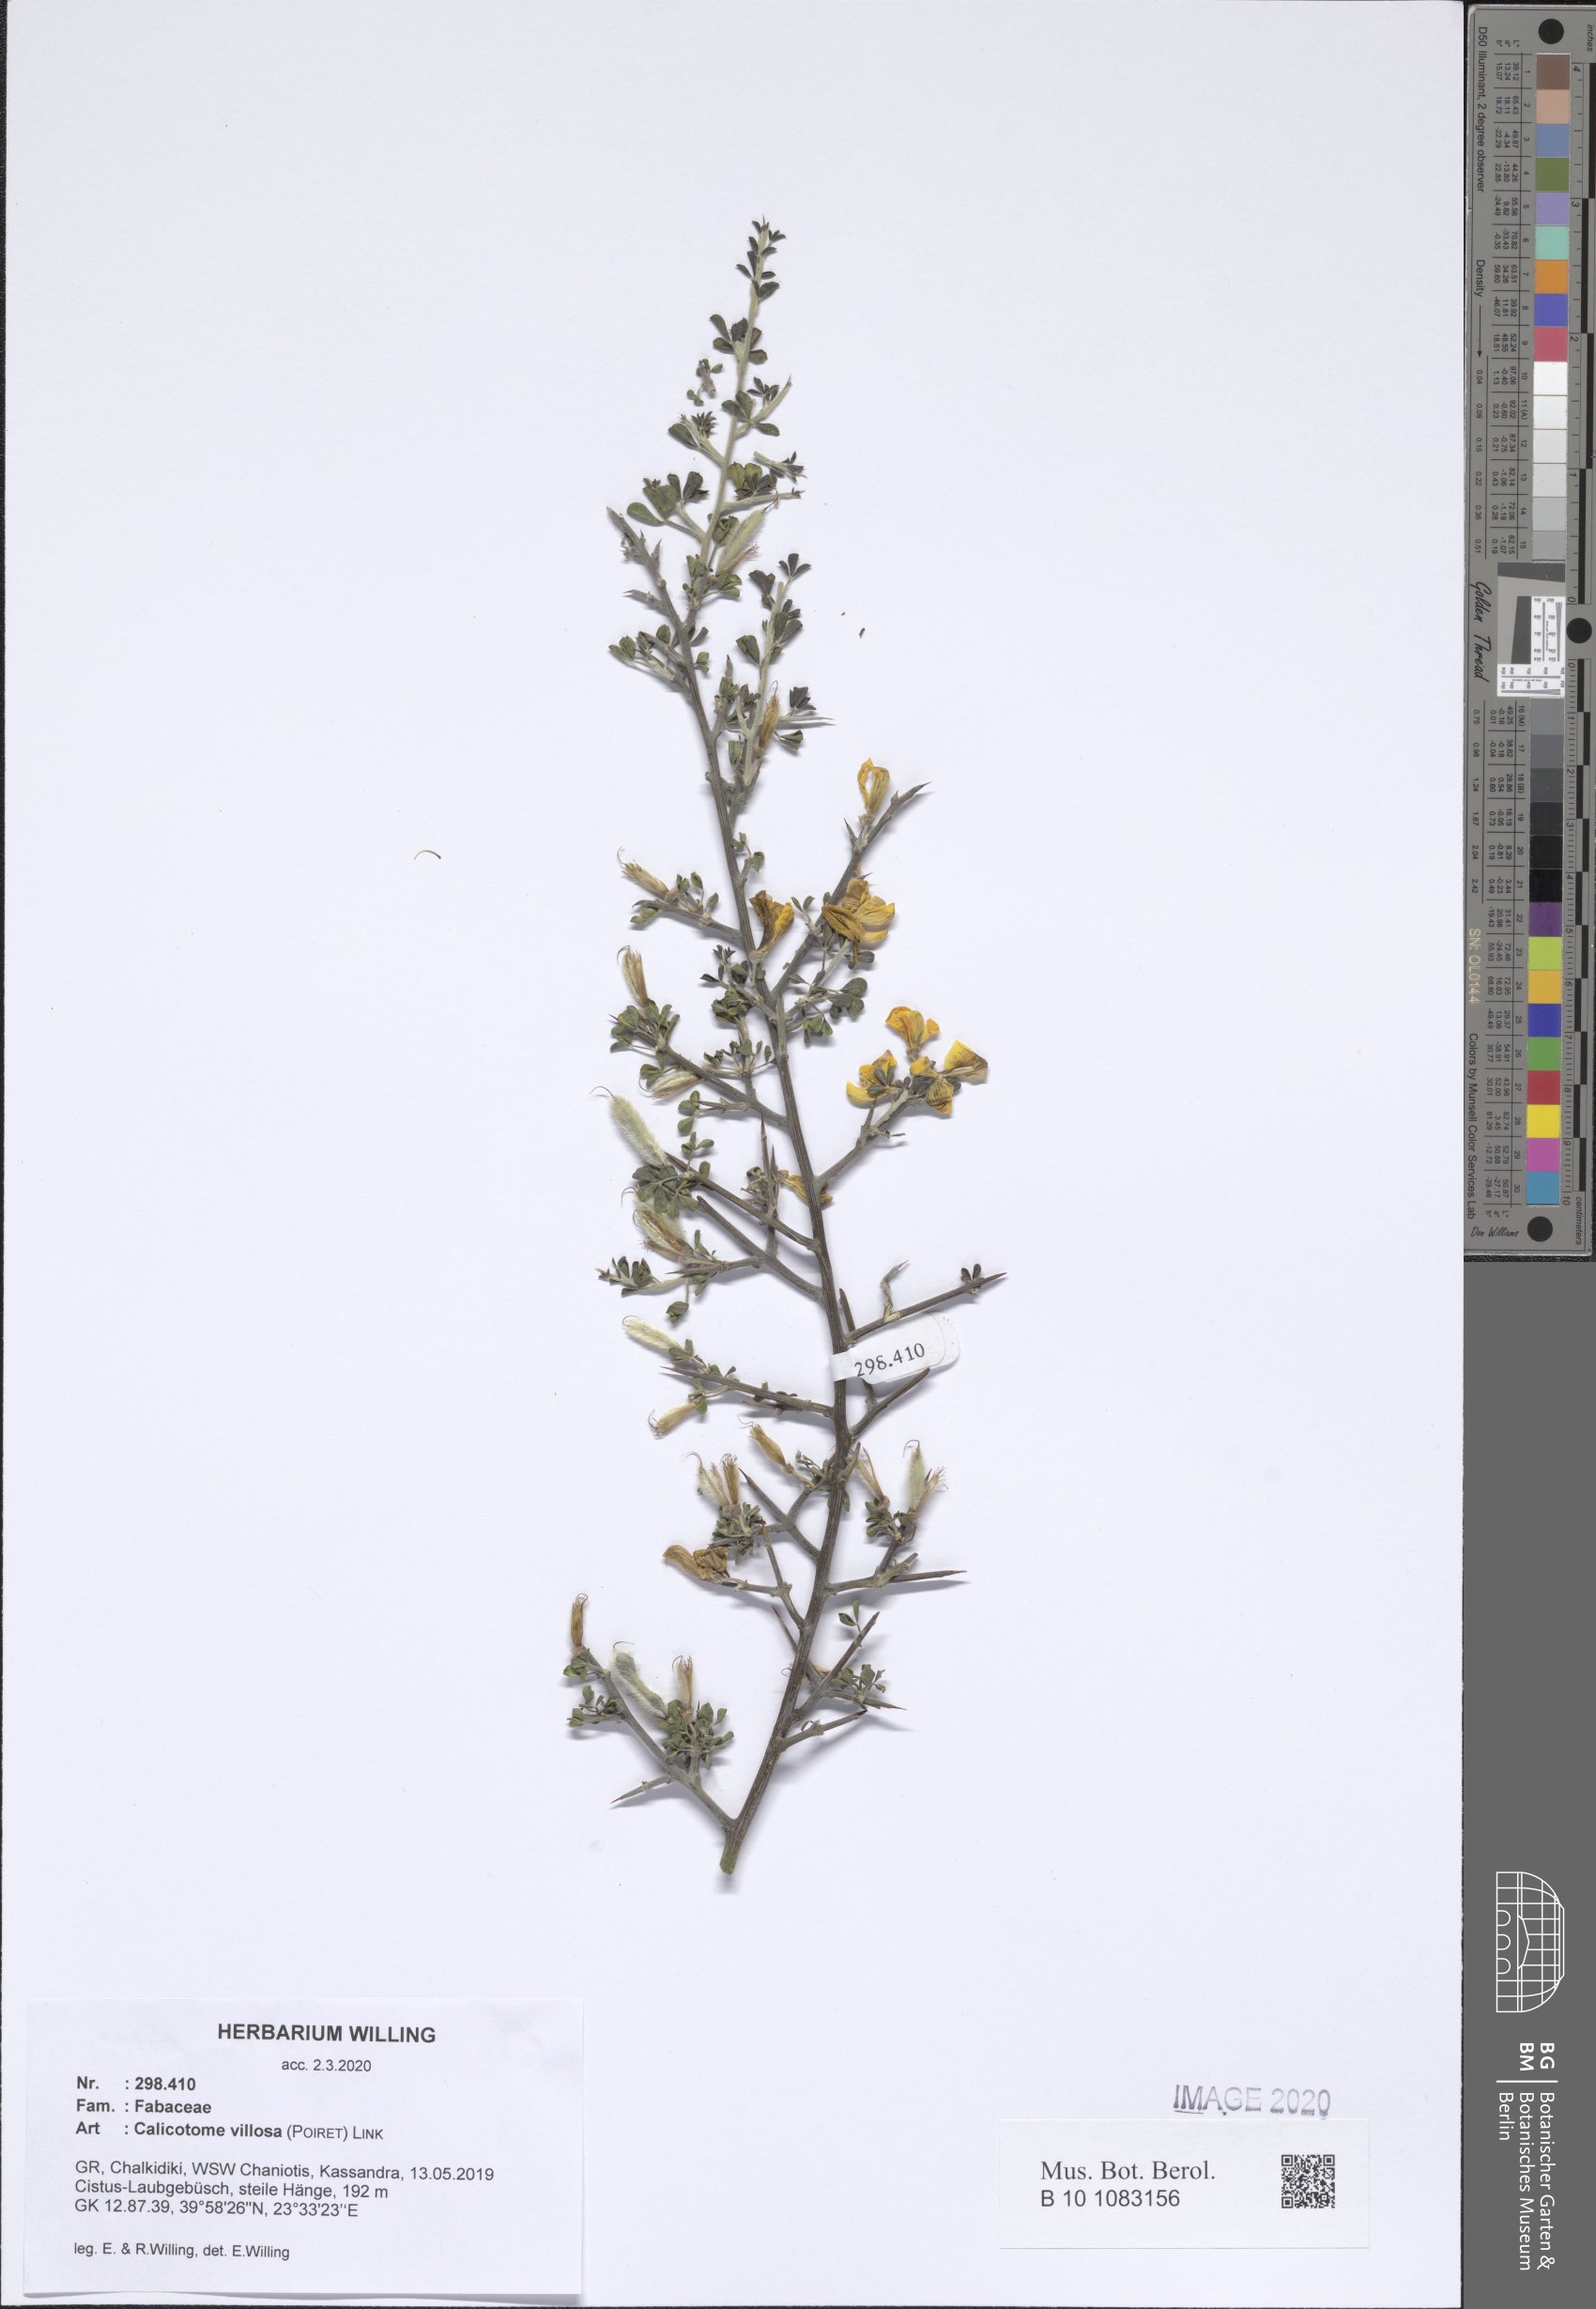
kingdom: Plantae
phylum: Tracheophyta
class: Magnoliopsida
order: Fabales
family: Fabaceae
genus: Calicotome
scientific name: Calicotome villosa
